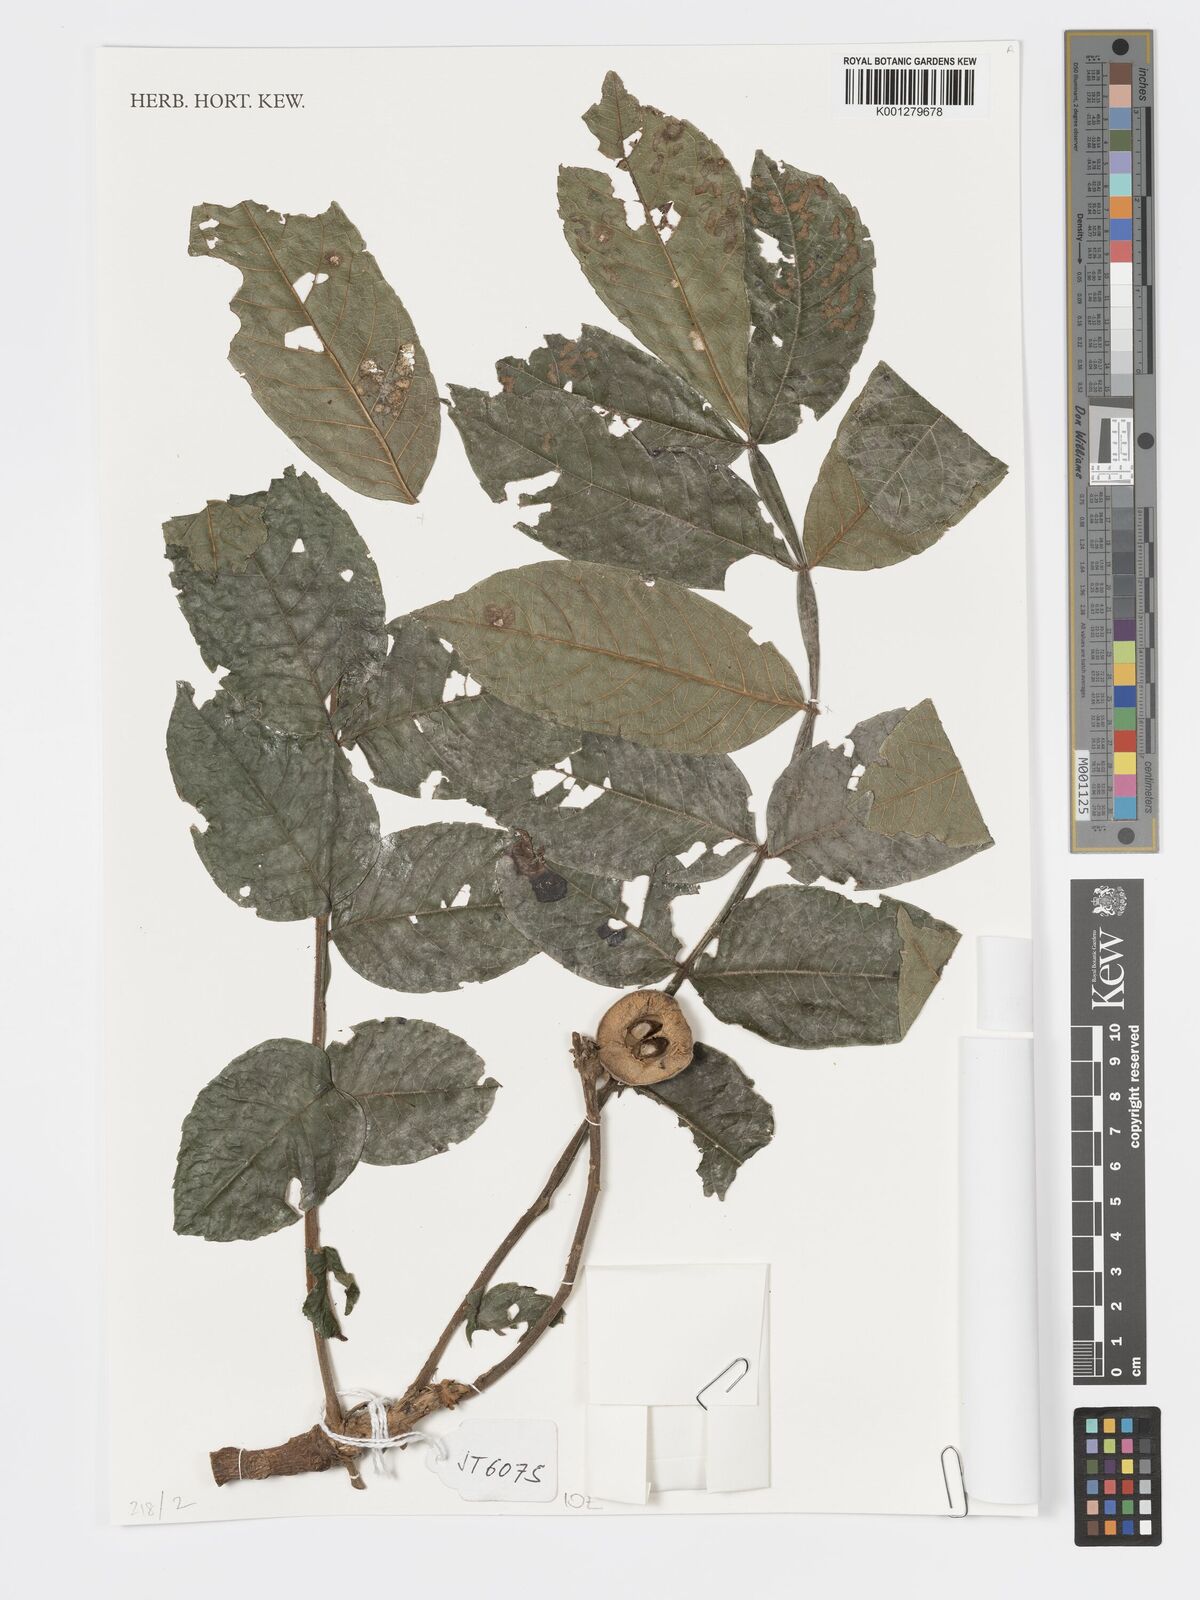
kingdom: Plantae
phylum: Tracheophyta
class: Magnoliopsida
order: Geraniales
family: Melianthaceae
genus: Bersama
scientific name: Bersama abyssinica
